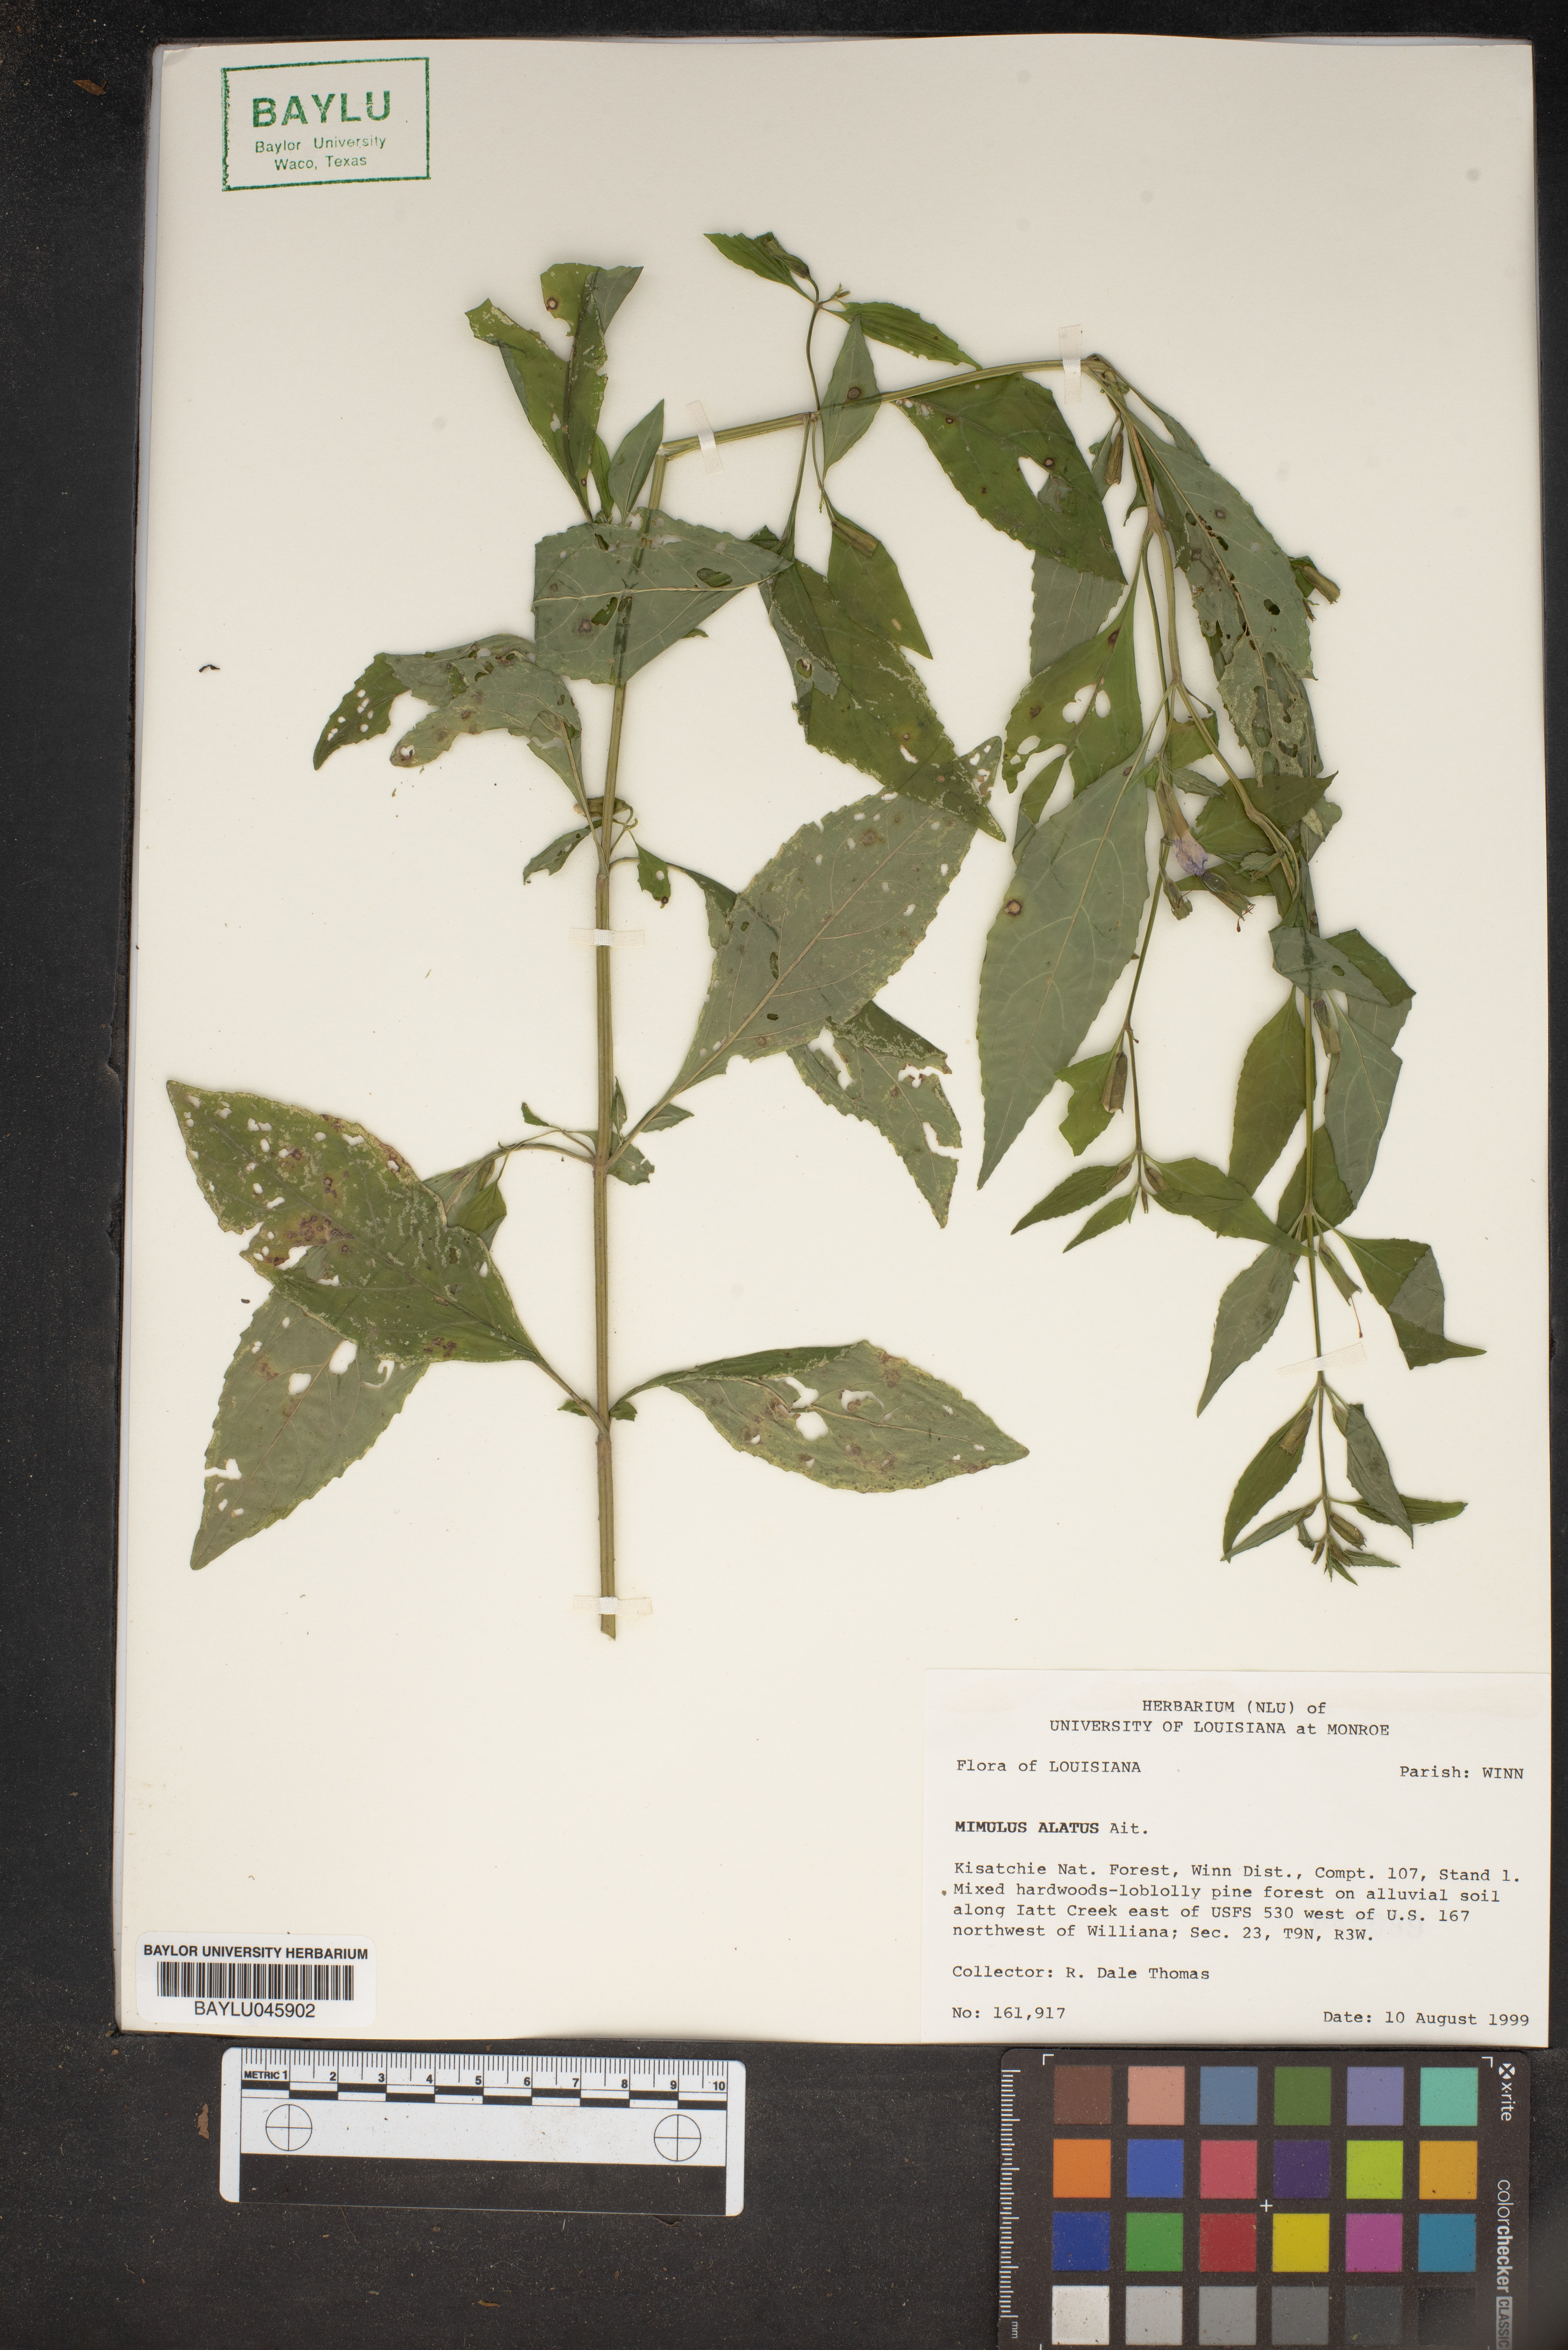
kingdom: Plantae
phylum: Tracheophyta
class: Magnoliopsida
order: Lamiales
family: Phrymaceae
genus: Mimulus
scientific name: Mimulus alatus
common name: Sharp-wing monkey-flower
